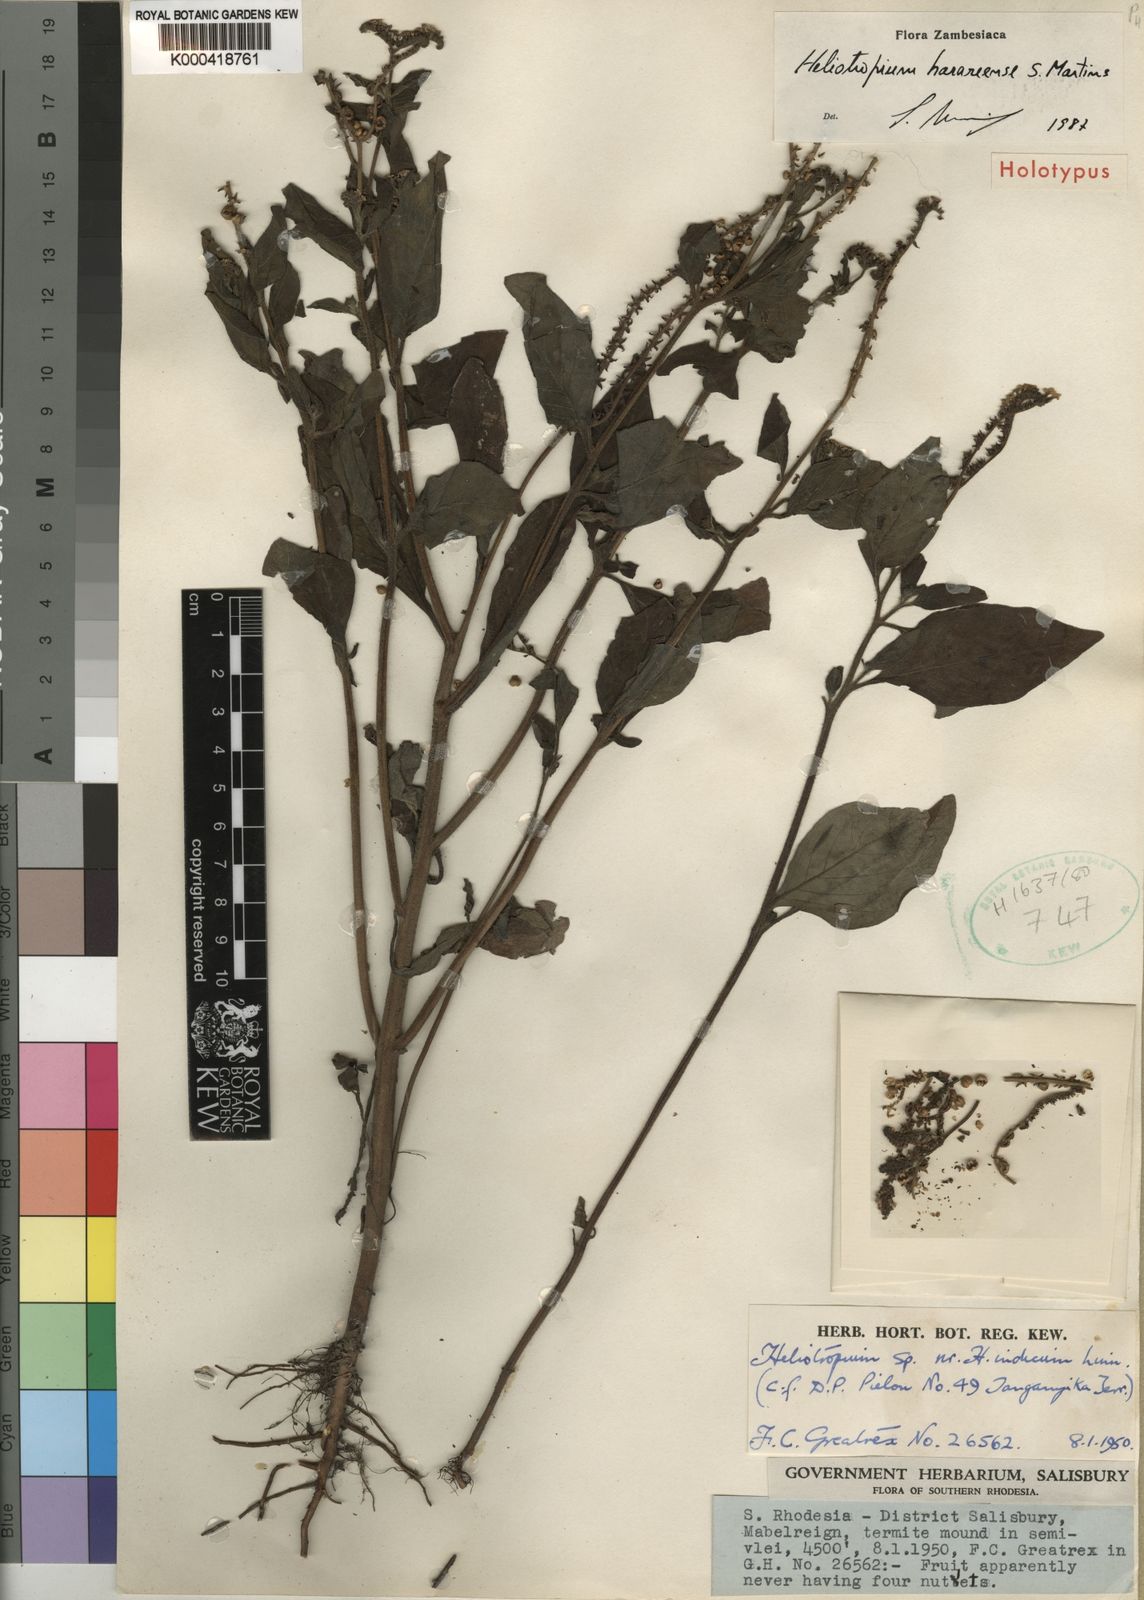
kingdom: Plantae
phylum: Tracheophyta
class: Magnoliopsida
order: Boraginales
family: Heliotropiaceae
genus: Heliotropium
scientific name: Heliotropium pectinatum
